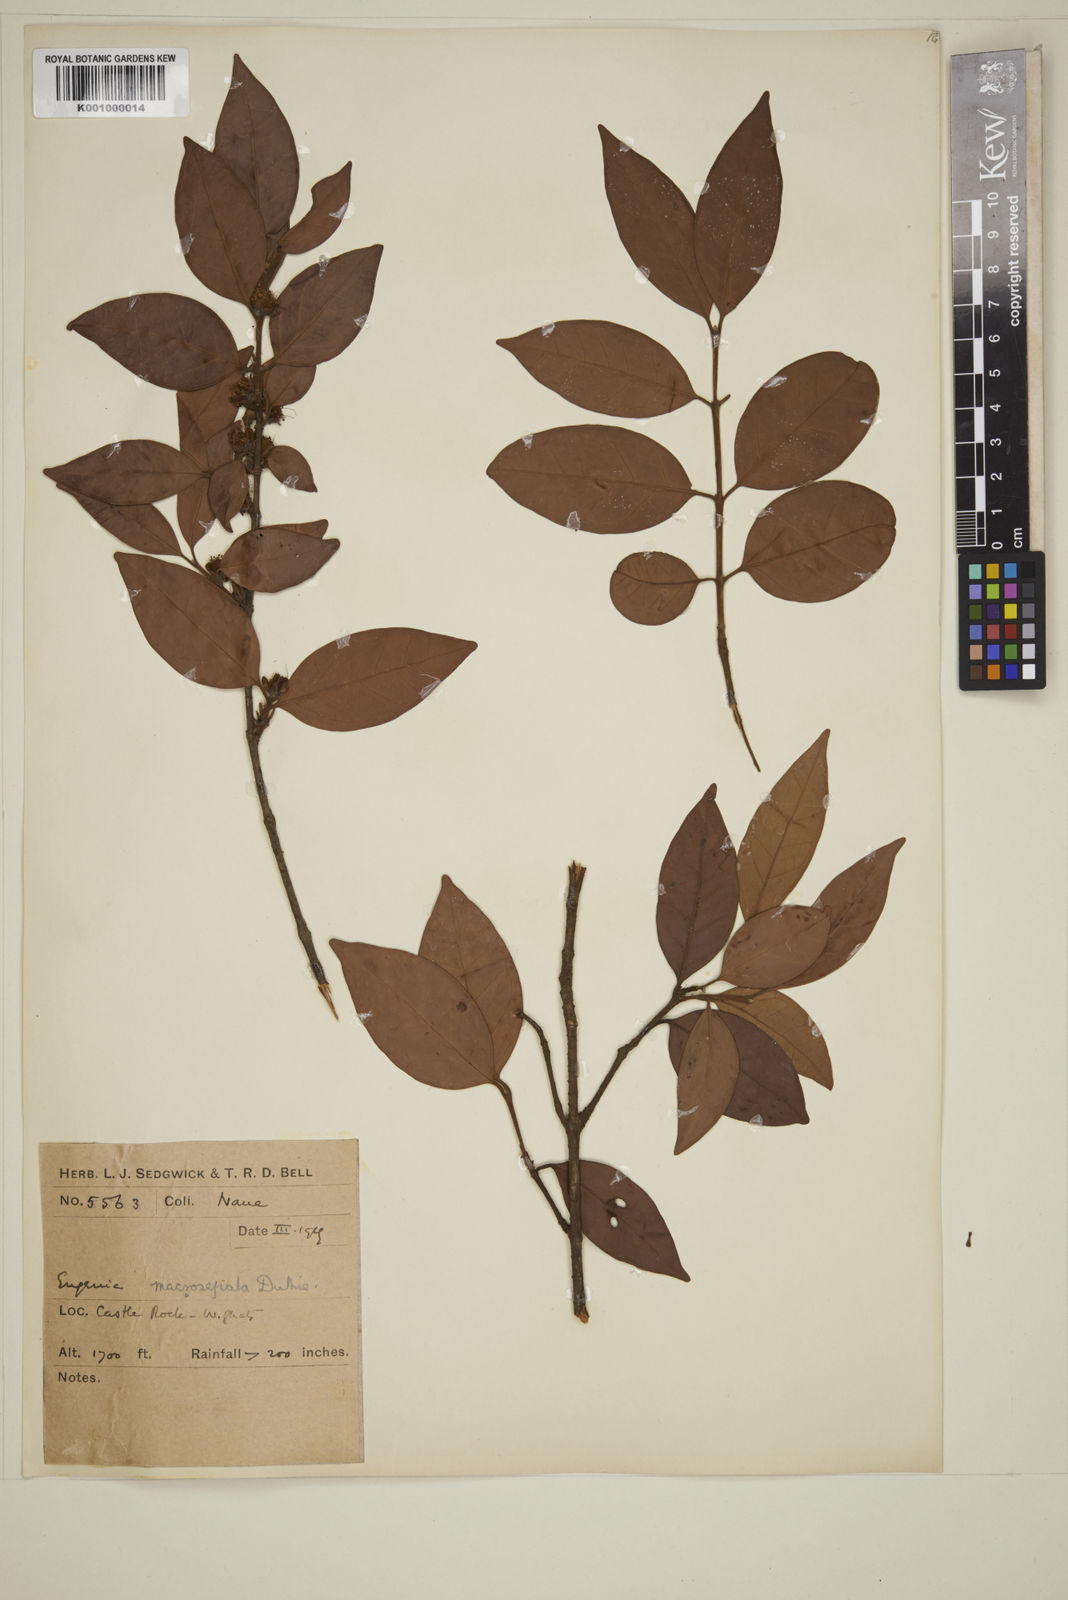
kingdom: Plantae
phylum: Tracheophyta
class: Magnoliopsida
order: Myrtales
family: Myrtaceae
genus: Eugenia
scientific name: Eugenia macrosepala
